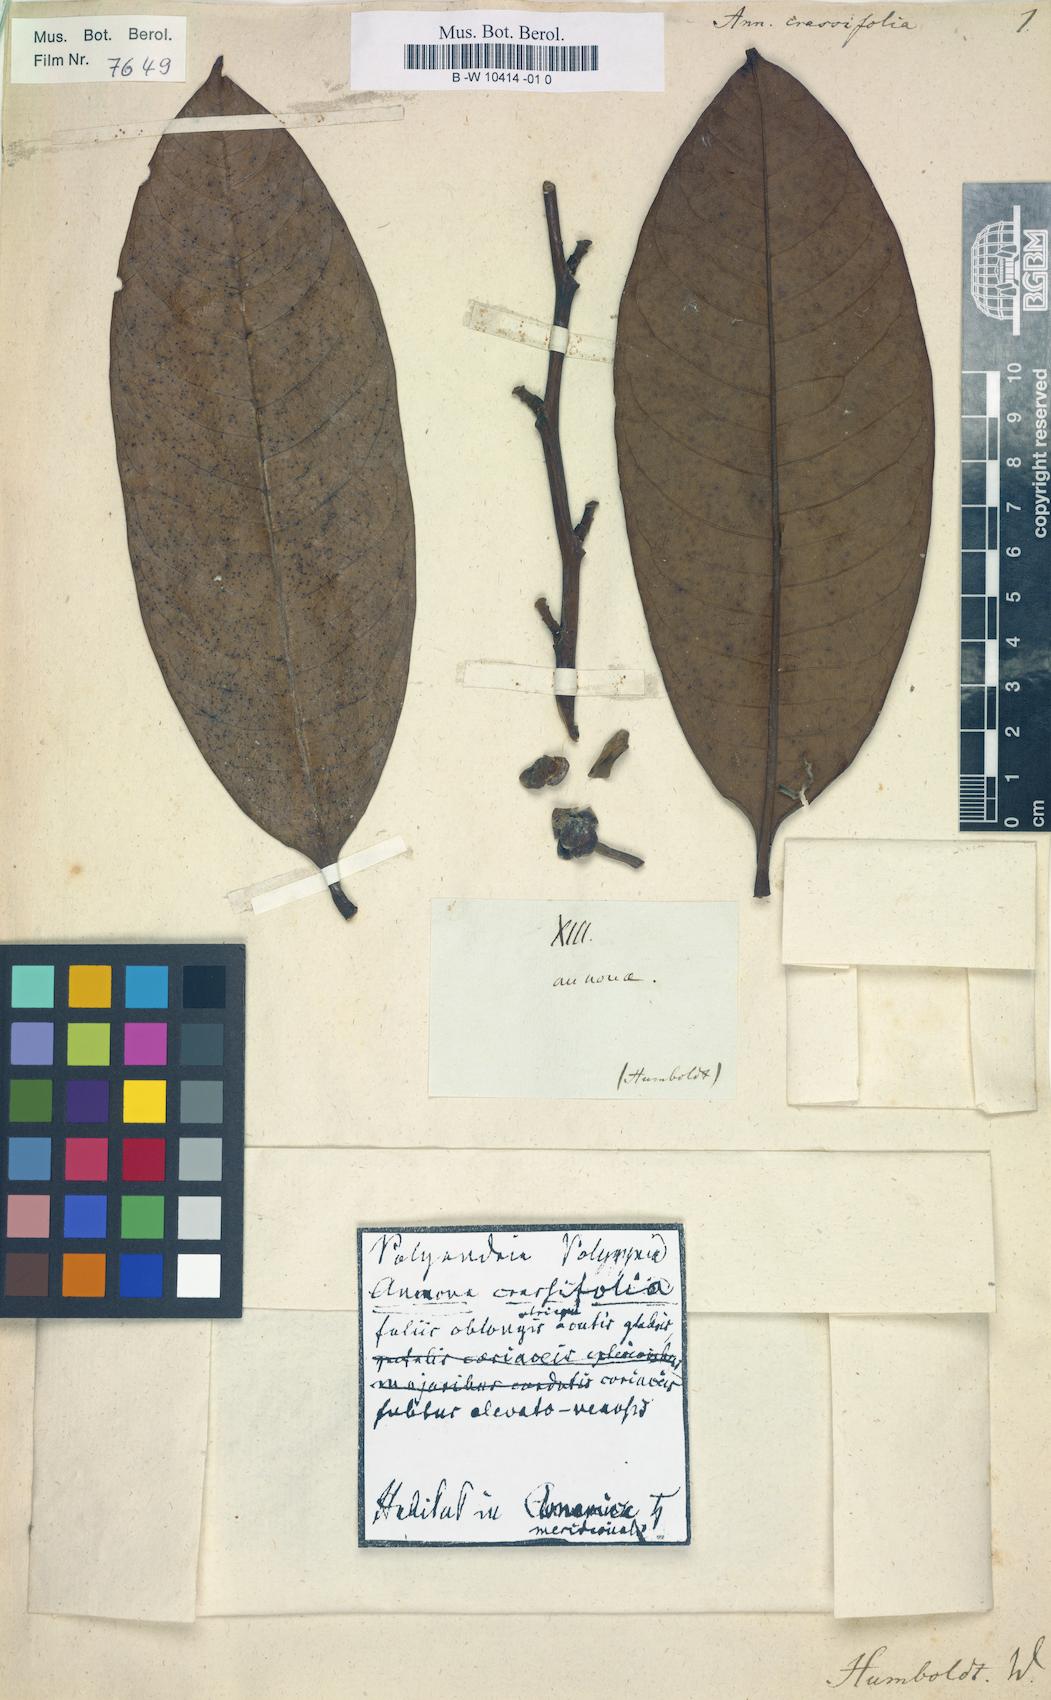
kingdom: Plantae
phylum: Tracheophyta
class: Magnoliopsida
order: Magnoliales
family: Annonaceae
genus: Annona
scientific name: Annona crassifolia
